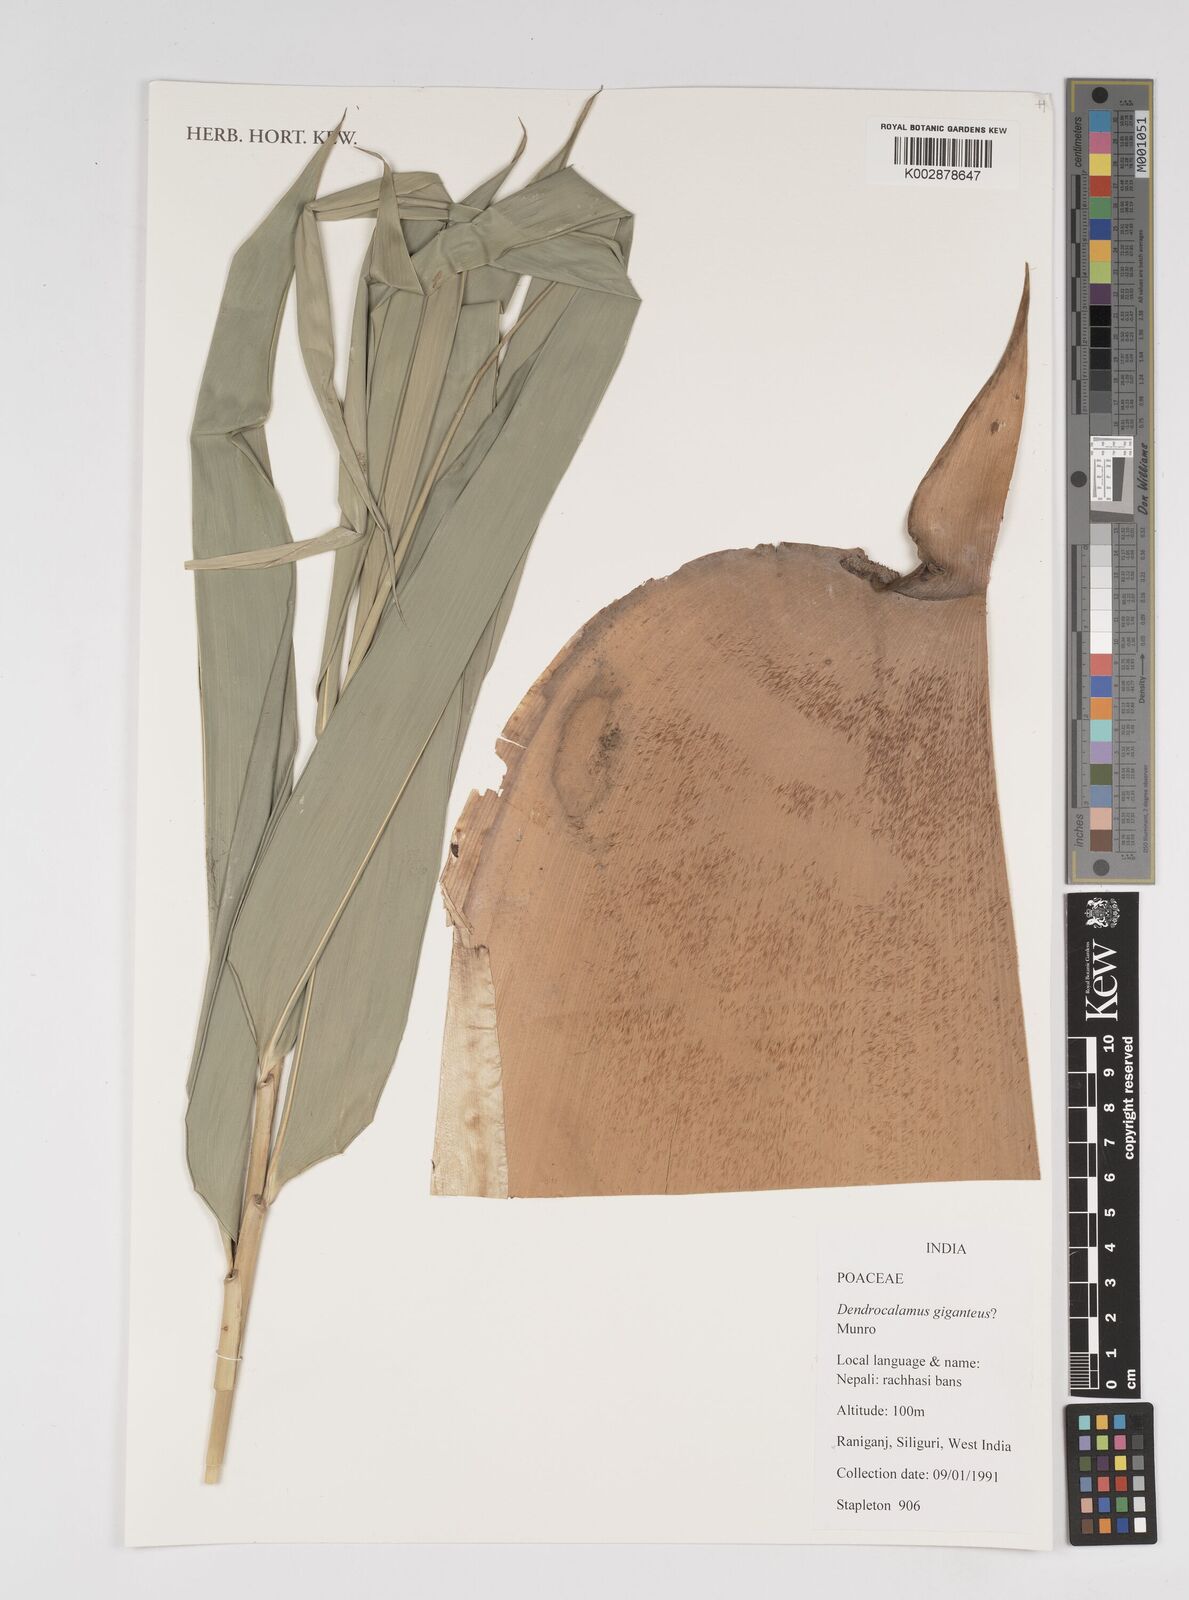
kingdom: Plantae
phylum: Tracheophyta
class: Liliopsida
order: Poales
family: Poaceae
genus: Dendrocalamus
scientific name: Dendrocalamus giganteus
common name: Giant bamboo
